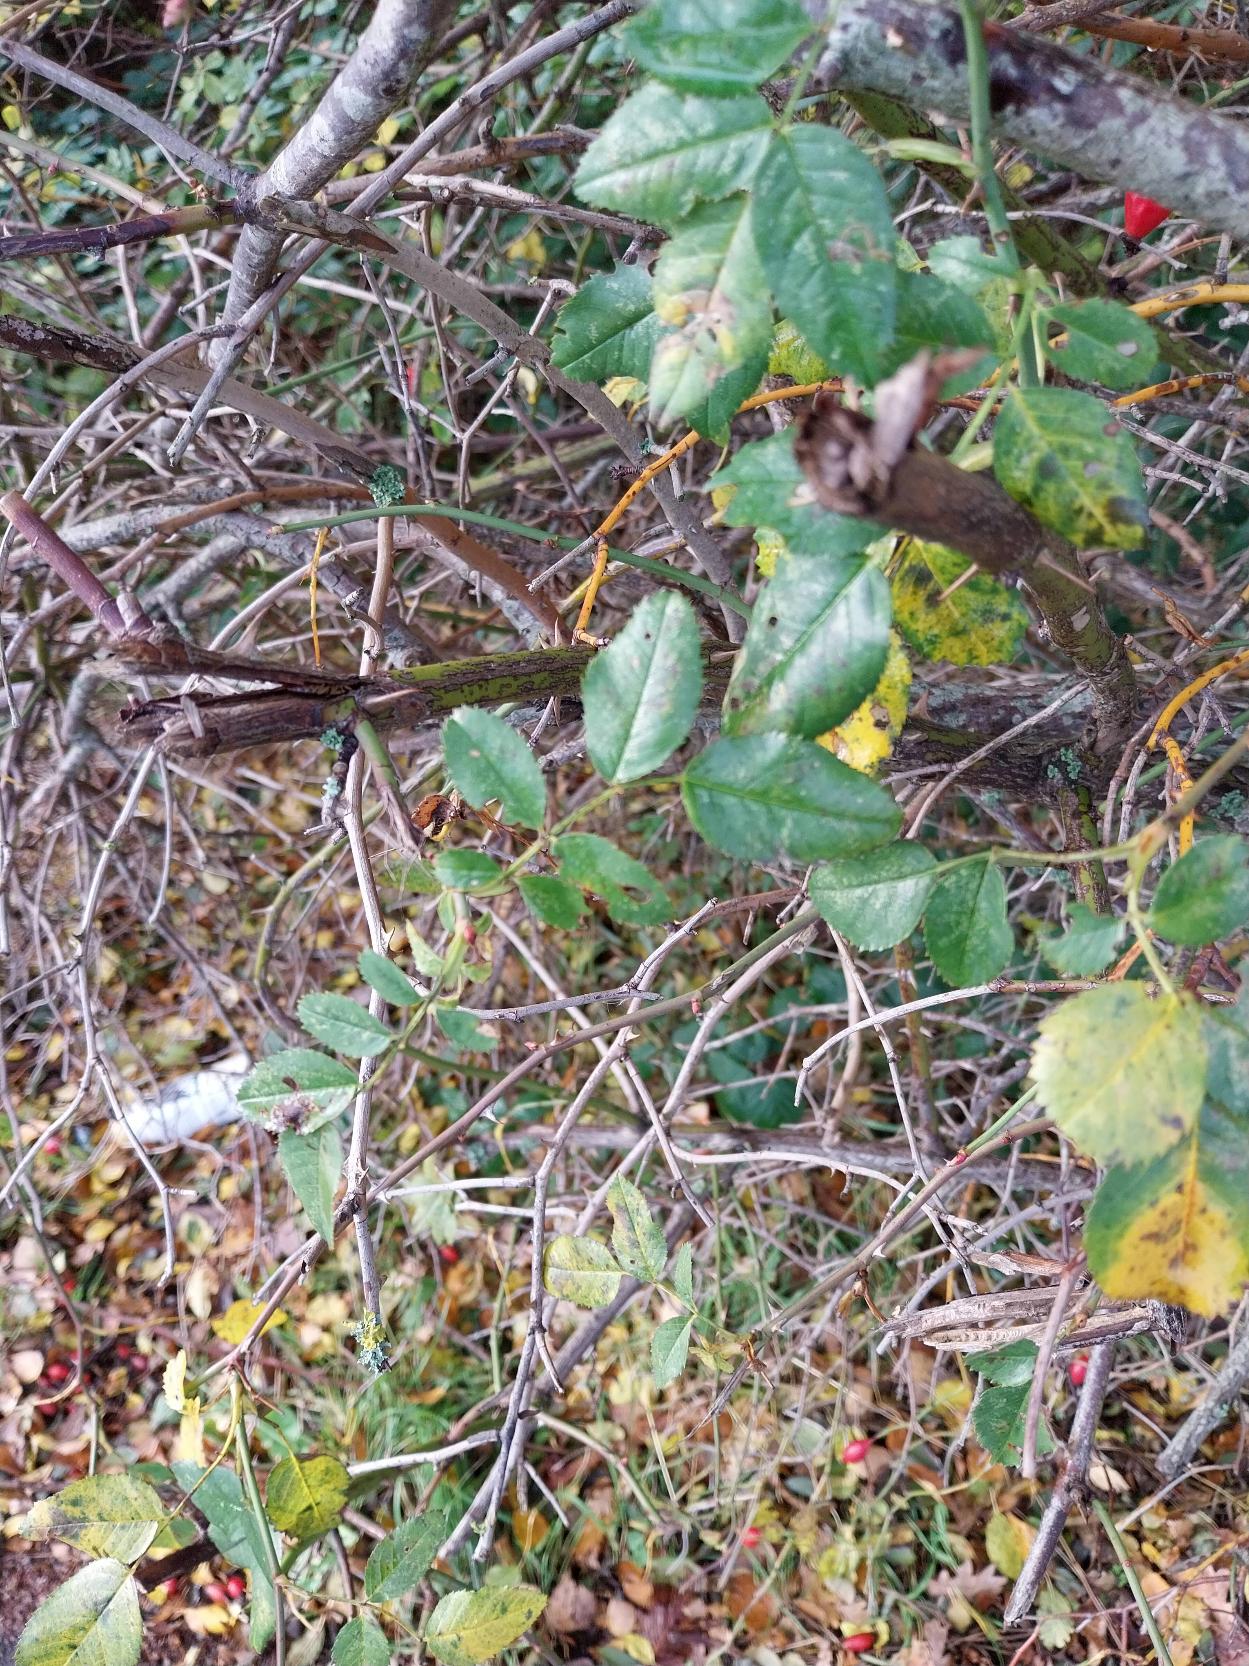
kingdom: Plantae
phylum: Tracheophyta
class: Magnoliopsida
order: Rosales
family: Rosaceae
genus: Rosa
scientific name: Rosa canina
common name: Glat hunde-rose
